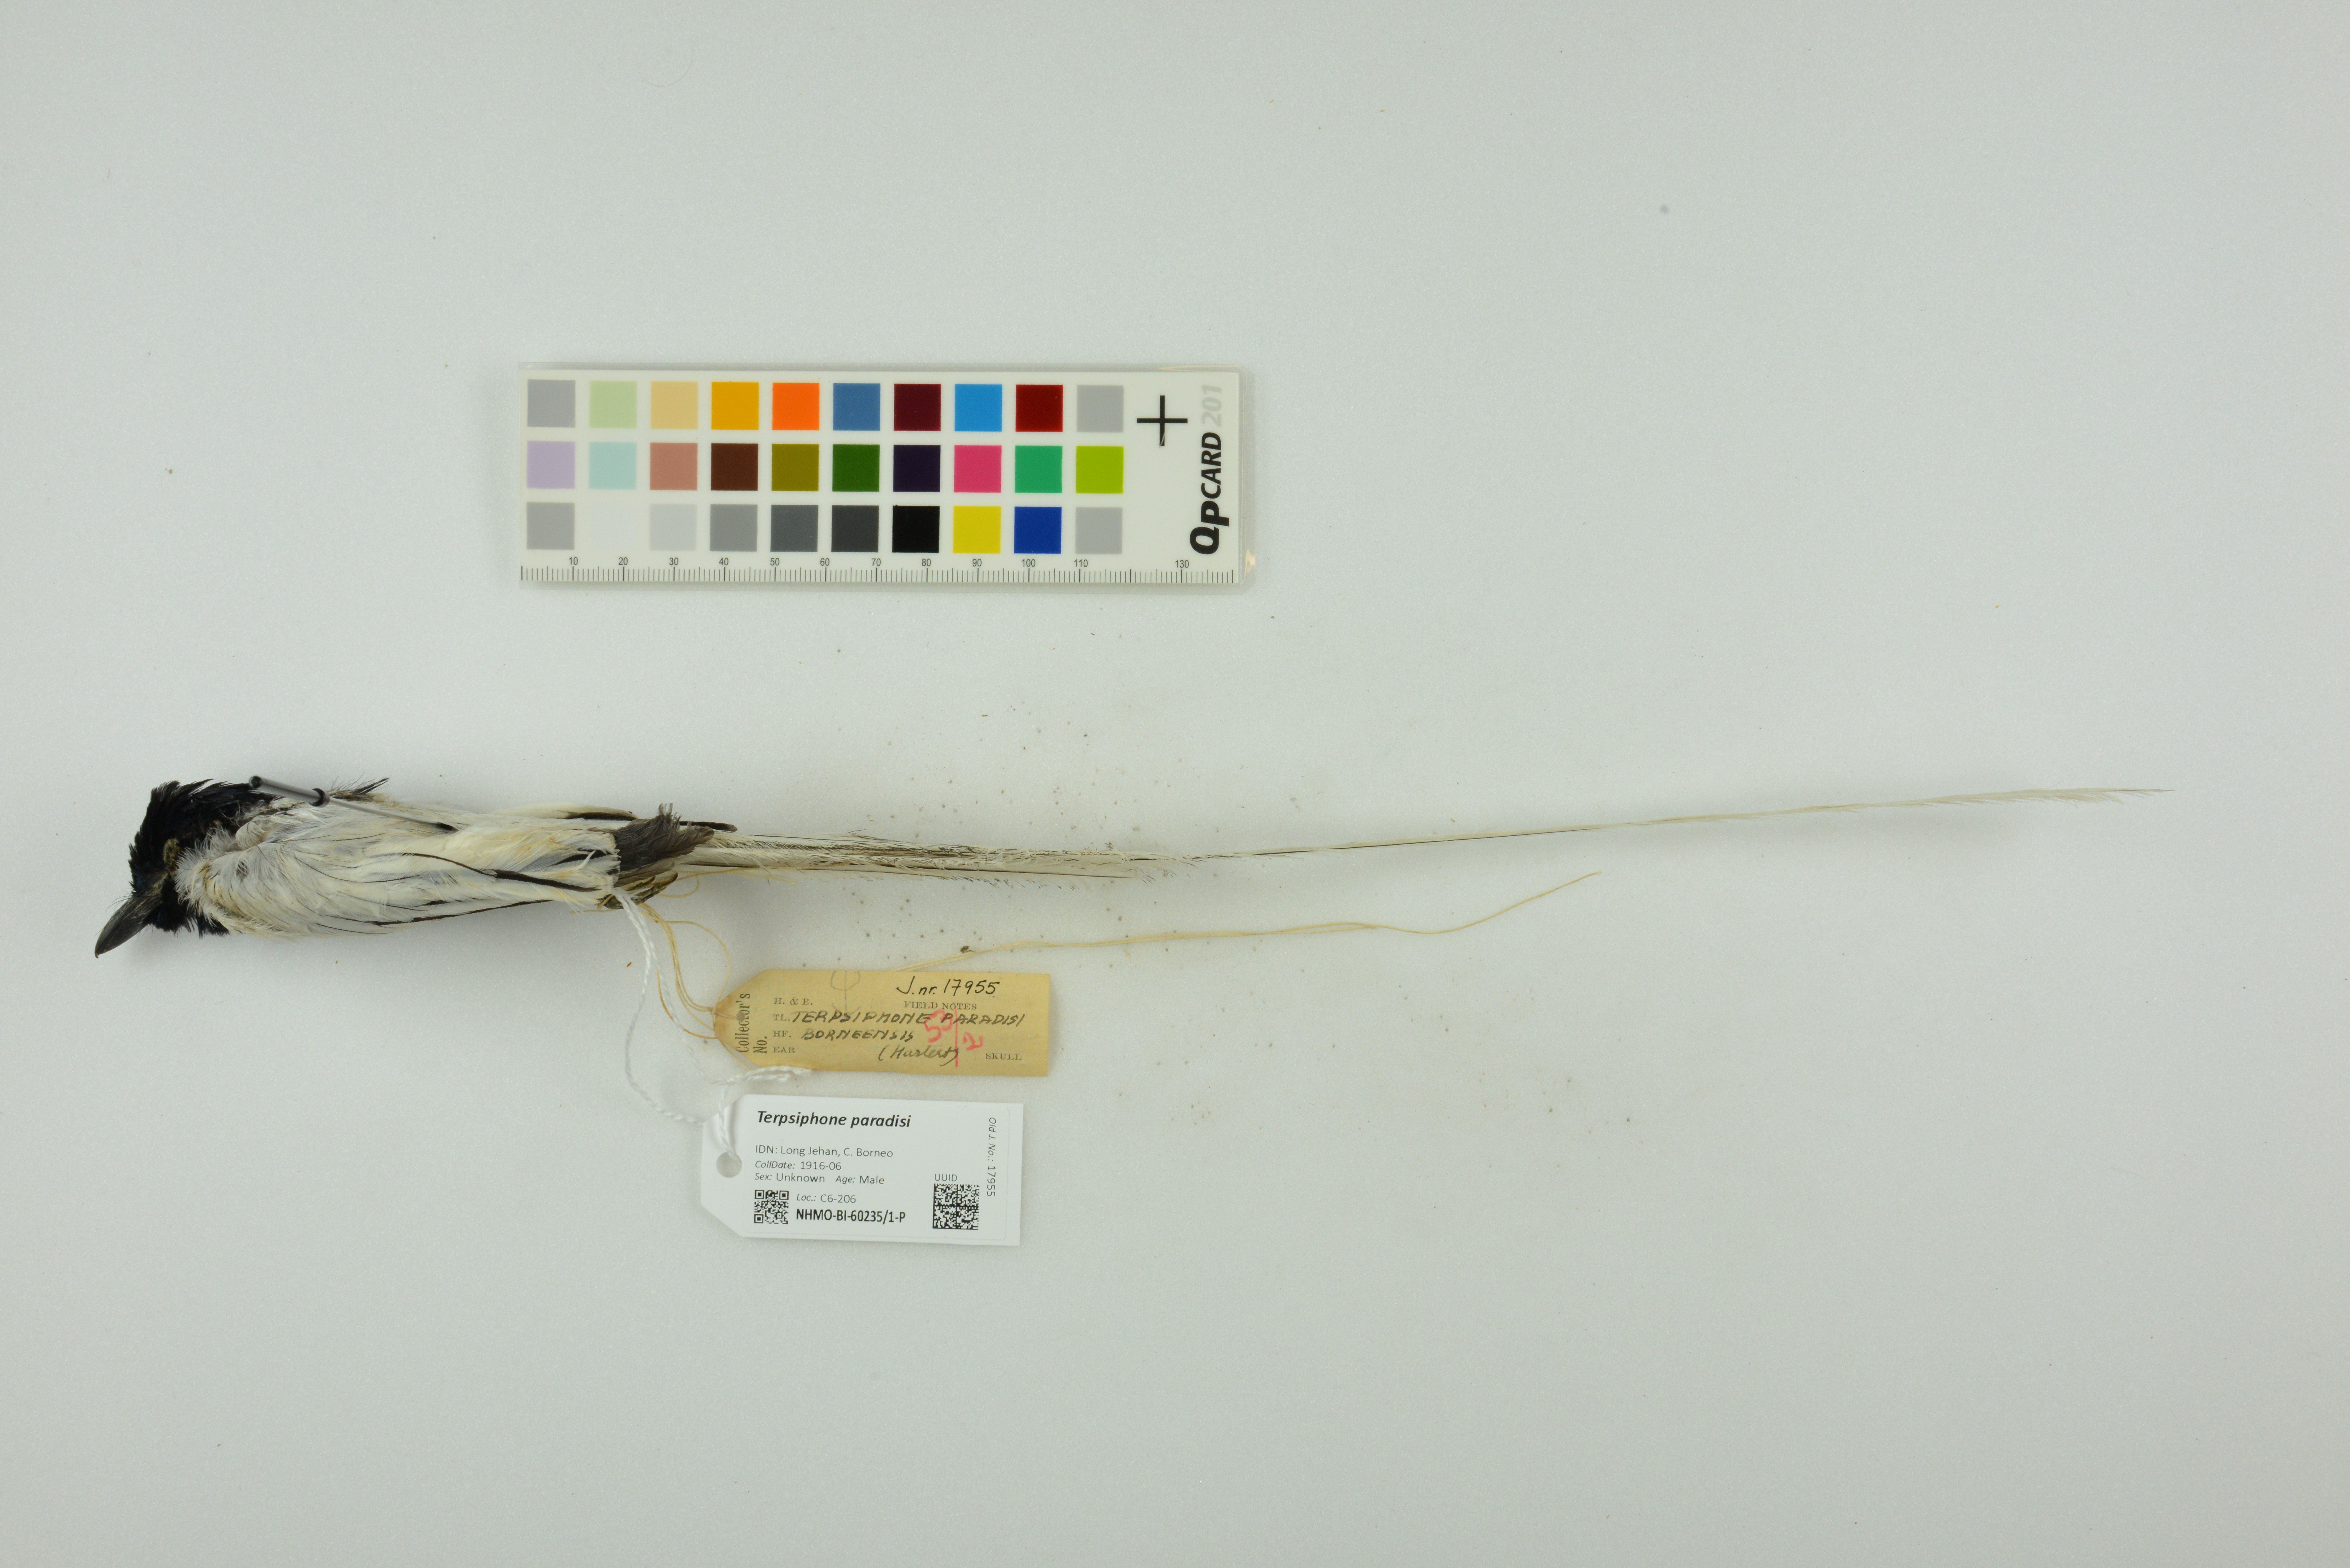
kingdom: Animalia
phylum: Chordata
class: Aves
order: Passeriformes
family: Monarchidae
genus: Terpsiphone
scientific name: Terpsiphone paradisi
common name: Indian paradise flycatcher
